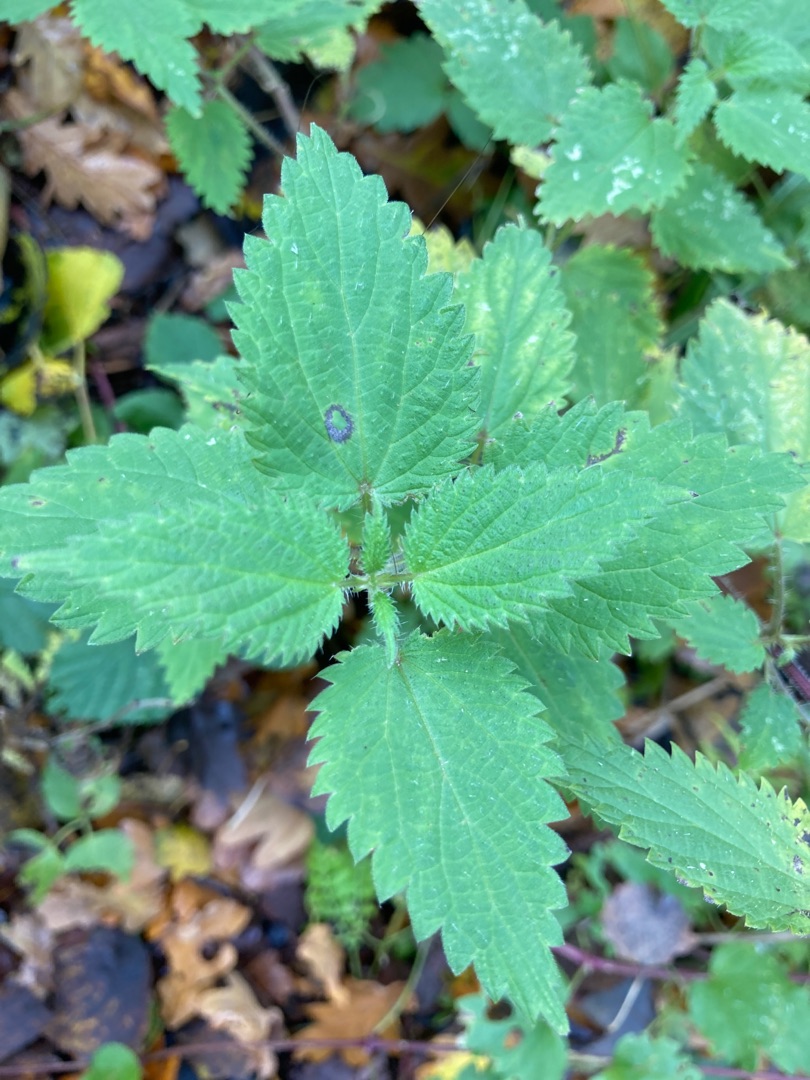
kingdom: Plantae
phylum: Tracheophyta
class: Magnoliopsida
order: Rosales
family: Urticaceae
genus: Urtica
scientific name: Urtica dioica
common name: Stor nælde
